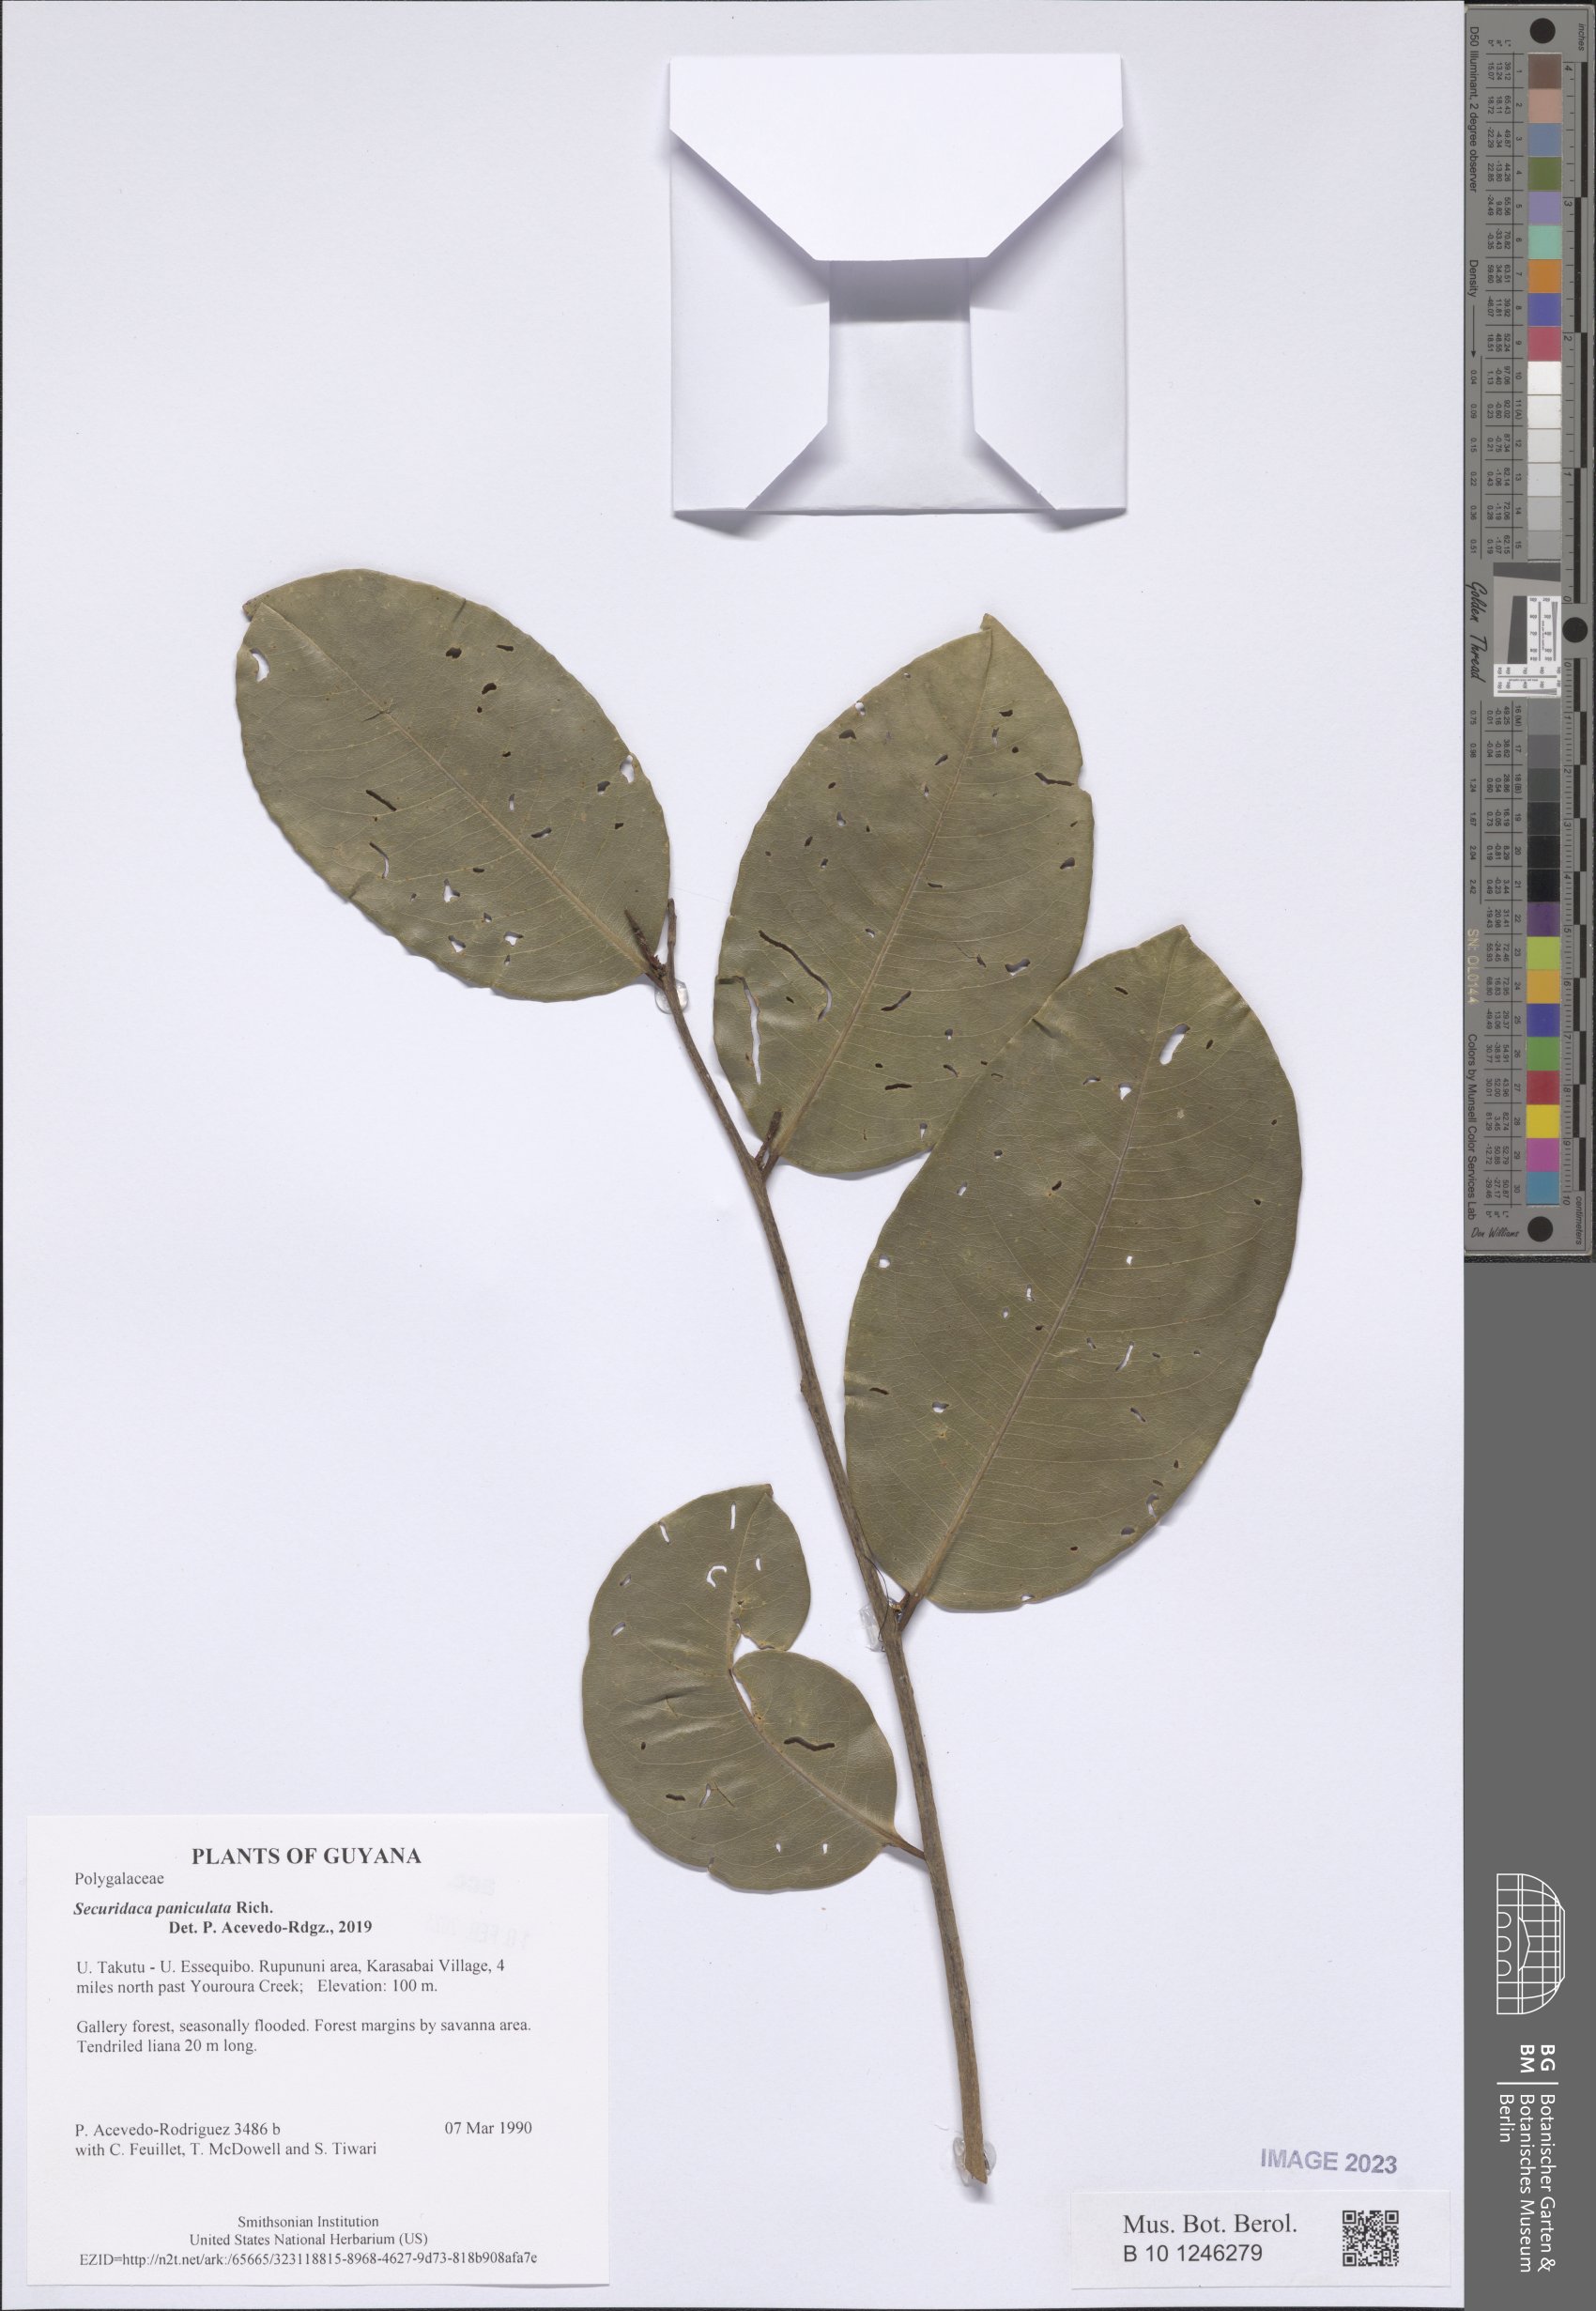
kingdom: Plantae
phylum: Tracheophyta
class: Magnoliopsida
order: Fabales
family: Polygalaceae
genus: Securidaca
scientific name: Securidaca paniculata
